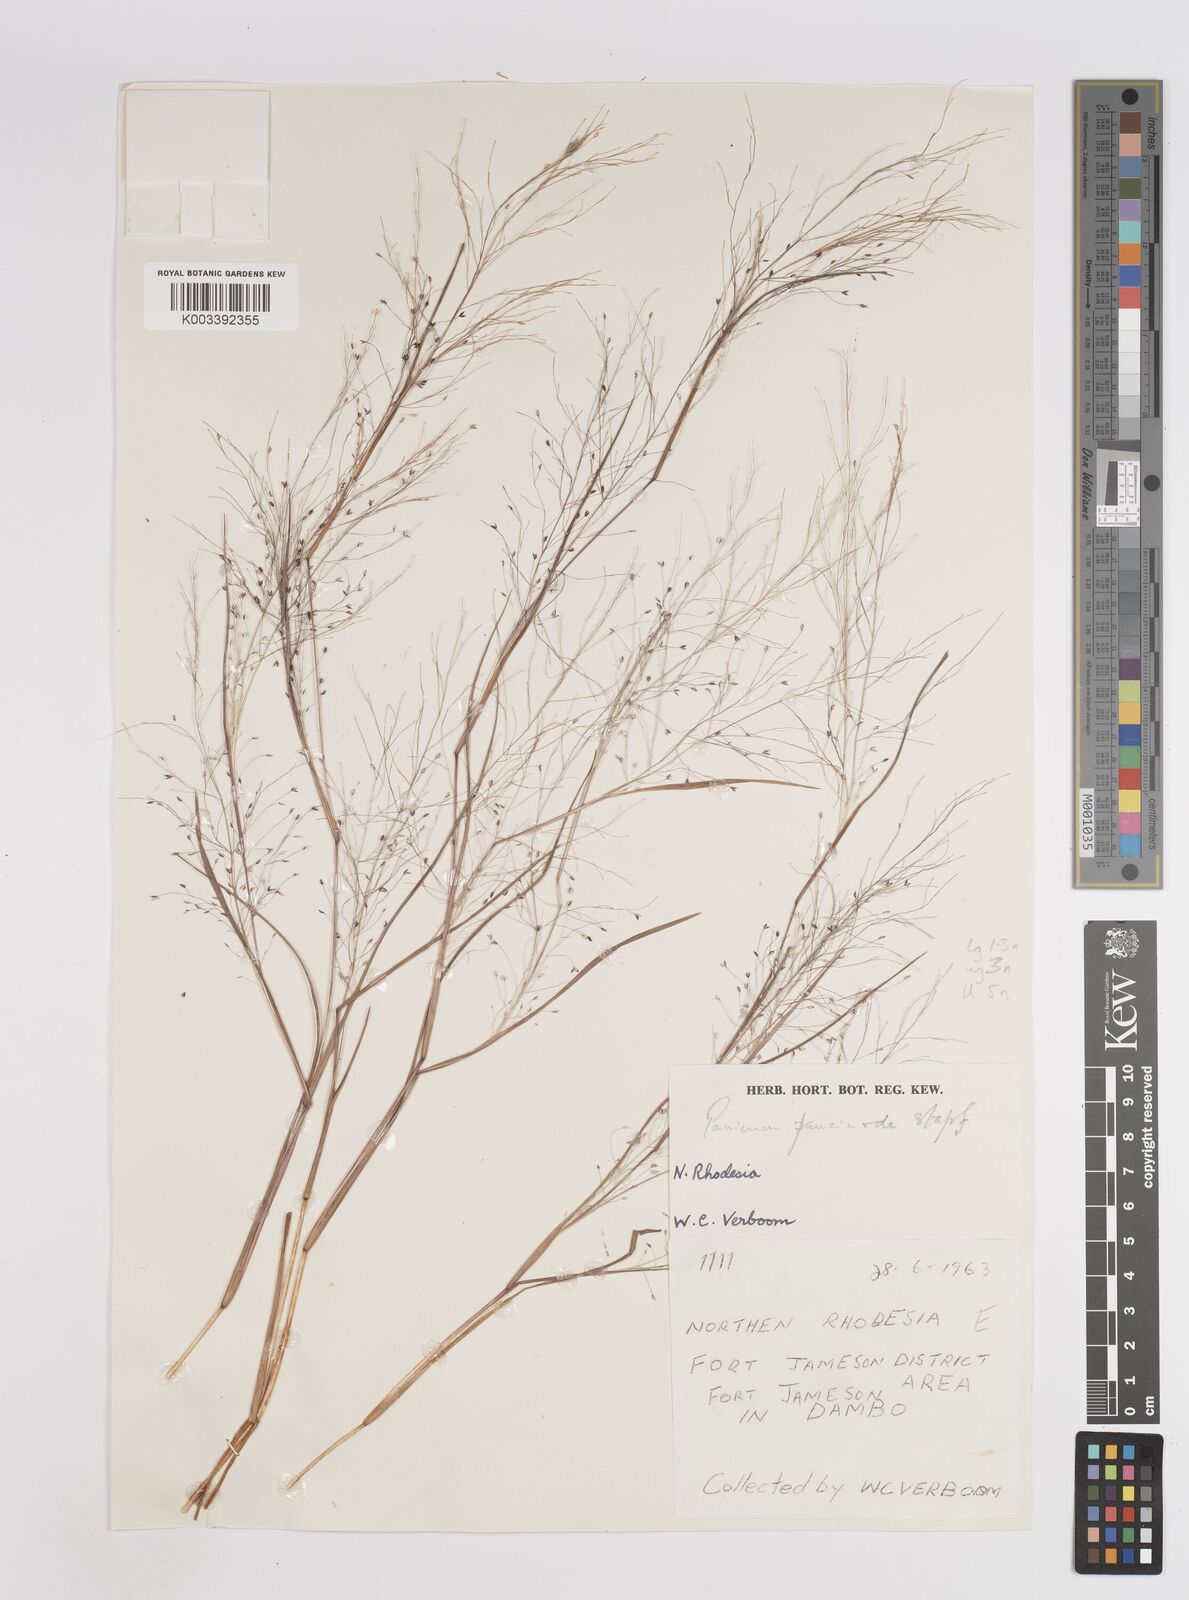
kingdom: Plantae
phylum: Tracheophyta
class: Liliopsida
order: Poales
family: Poaceae
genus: Panicum
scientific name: Panicum humile
